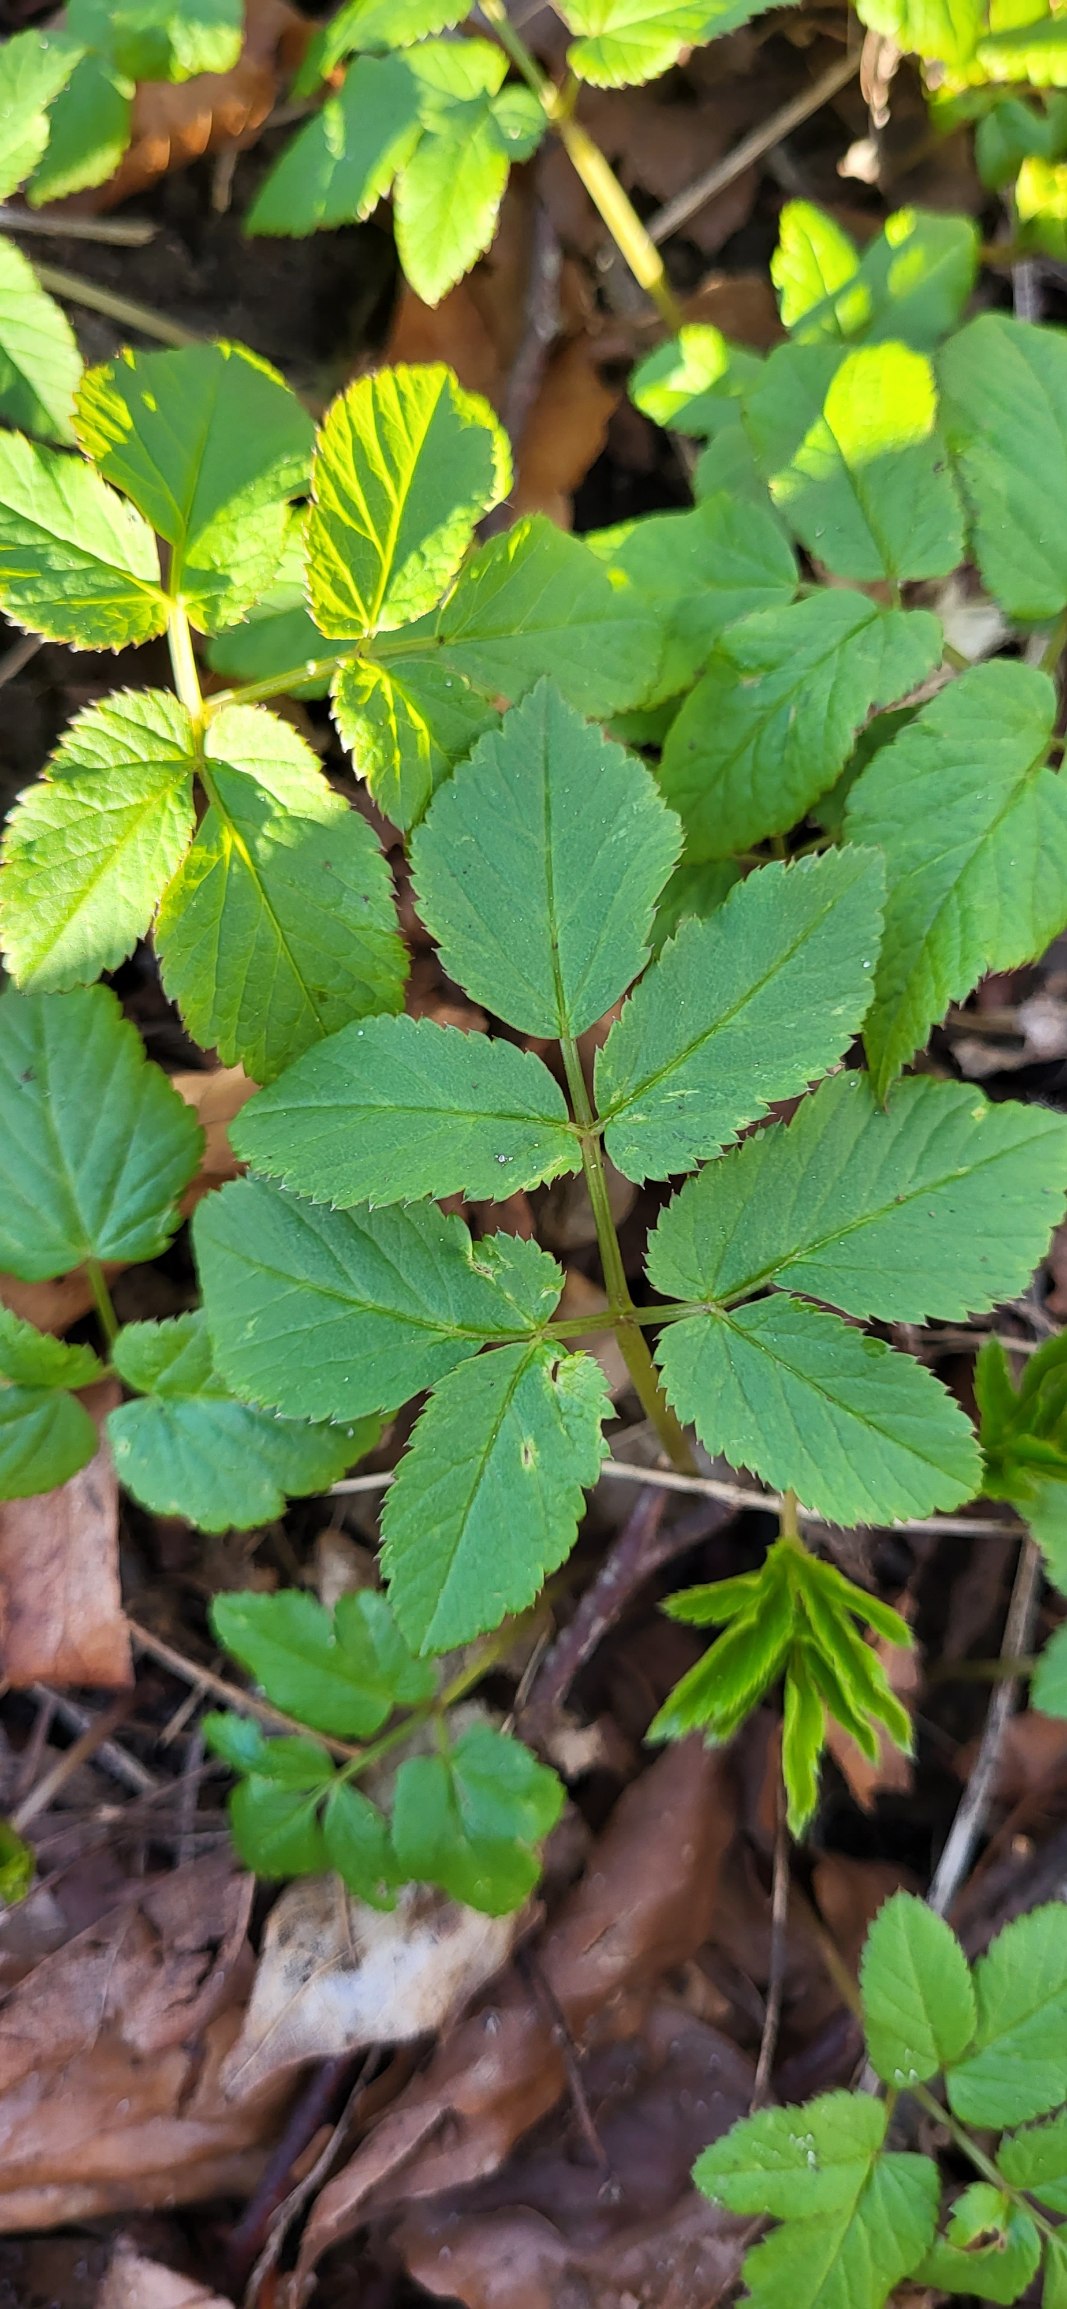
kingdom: Plantae
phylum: Tracheophyta
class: Magnoliopsida
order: Apiales
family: Apiaceae
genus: Aegopodium
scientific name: Aegopodium podagraria
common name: Skvalderkål
